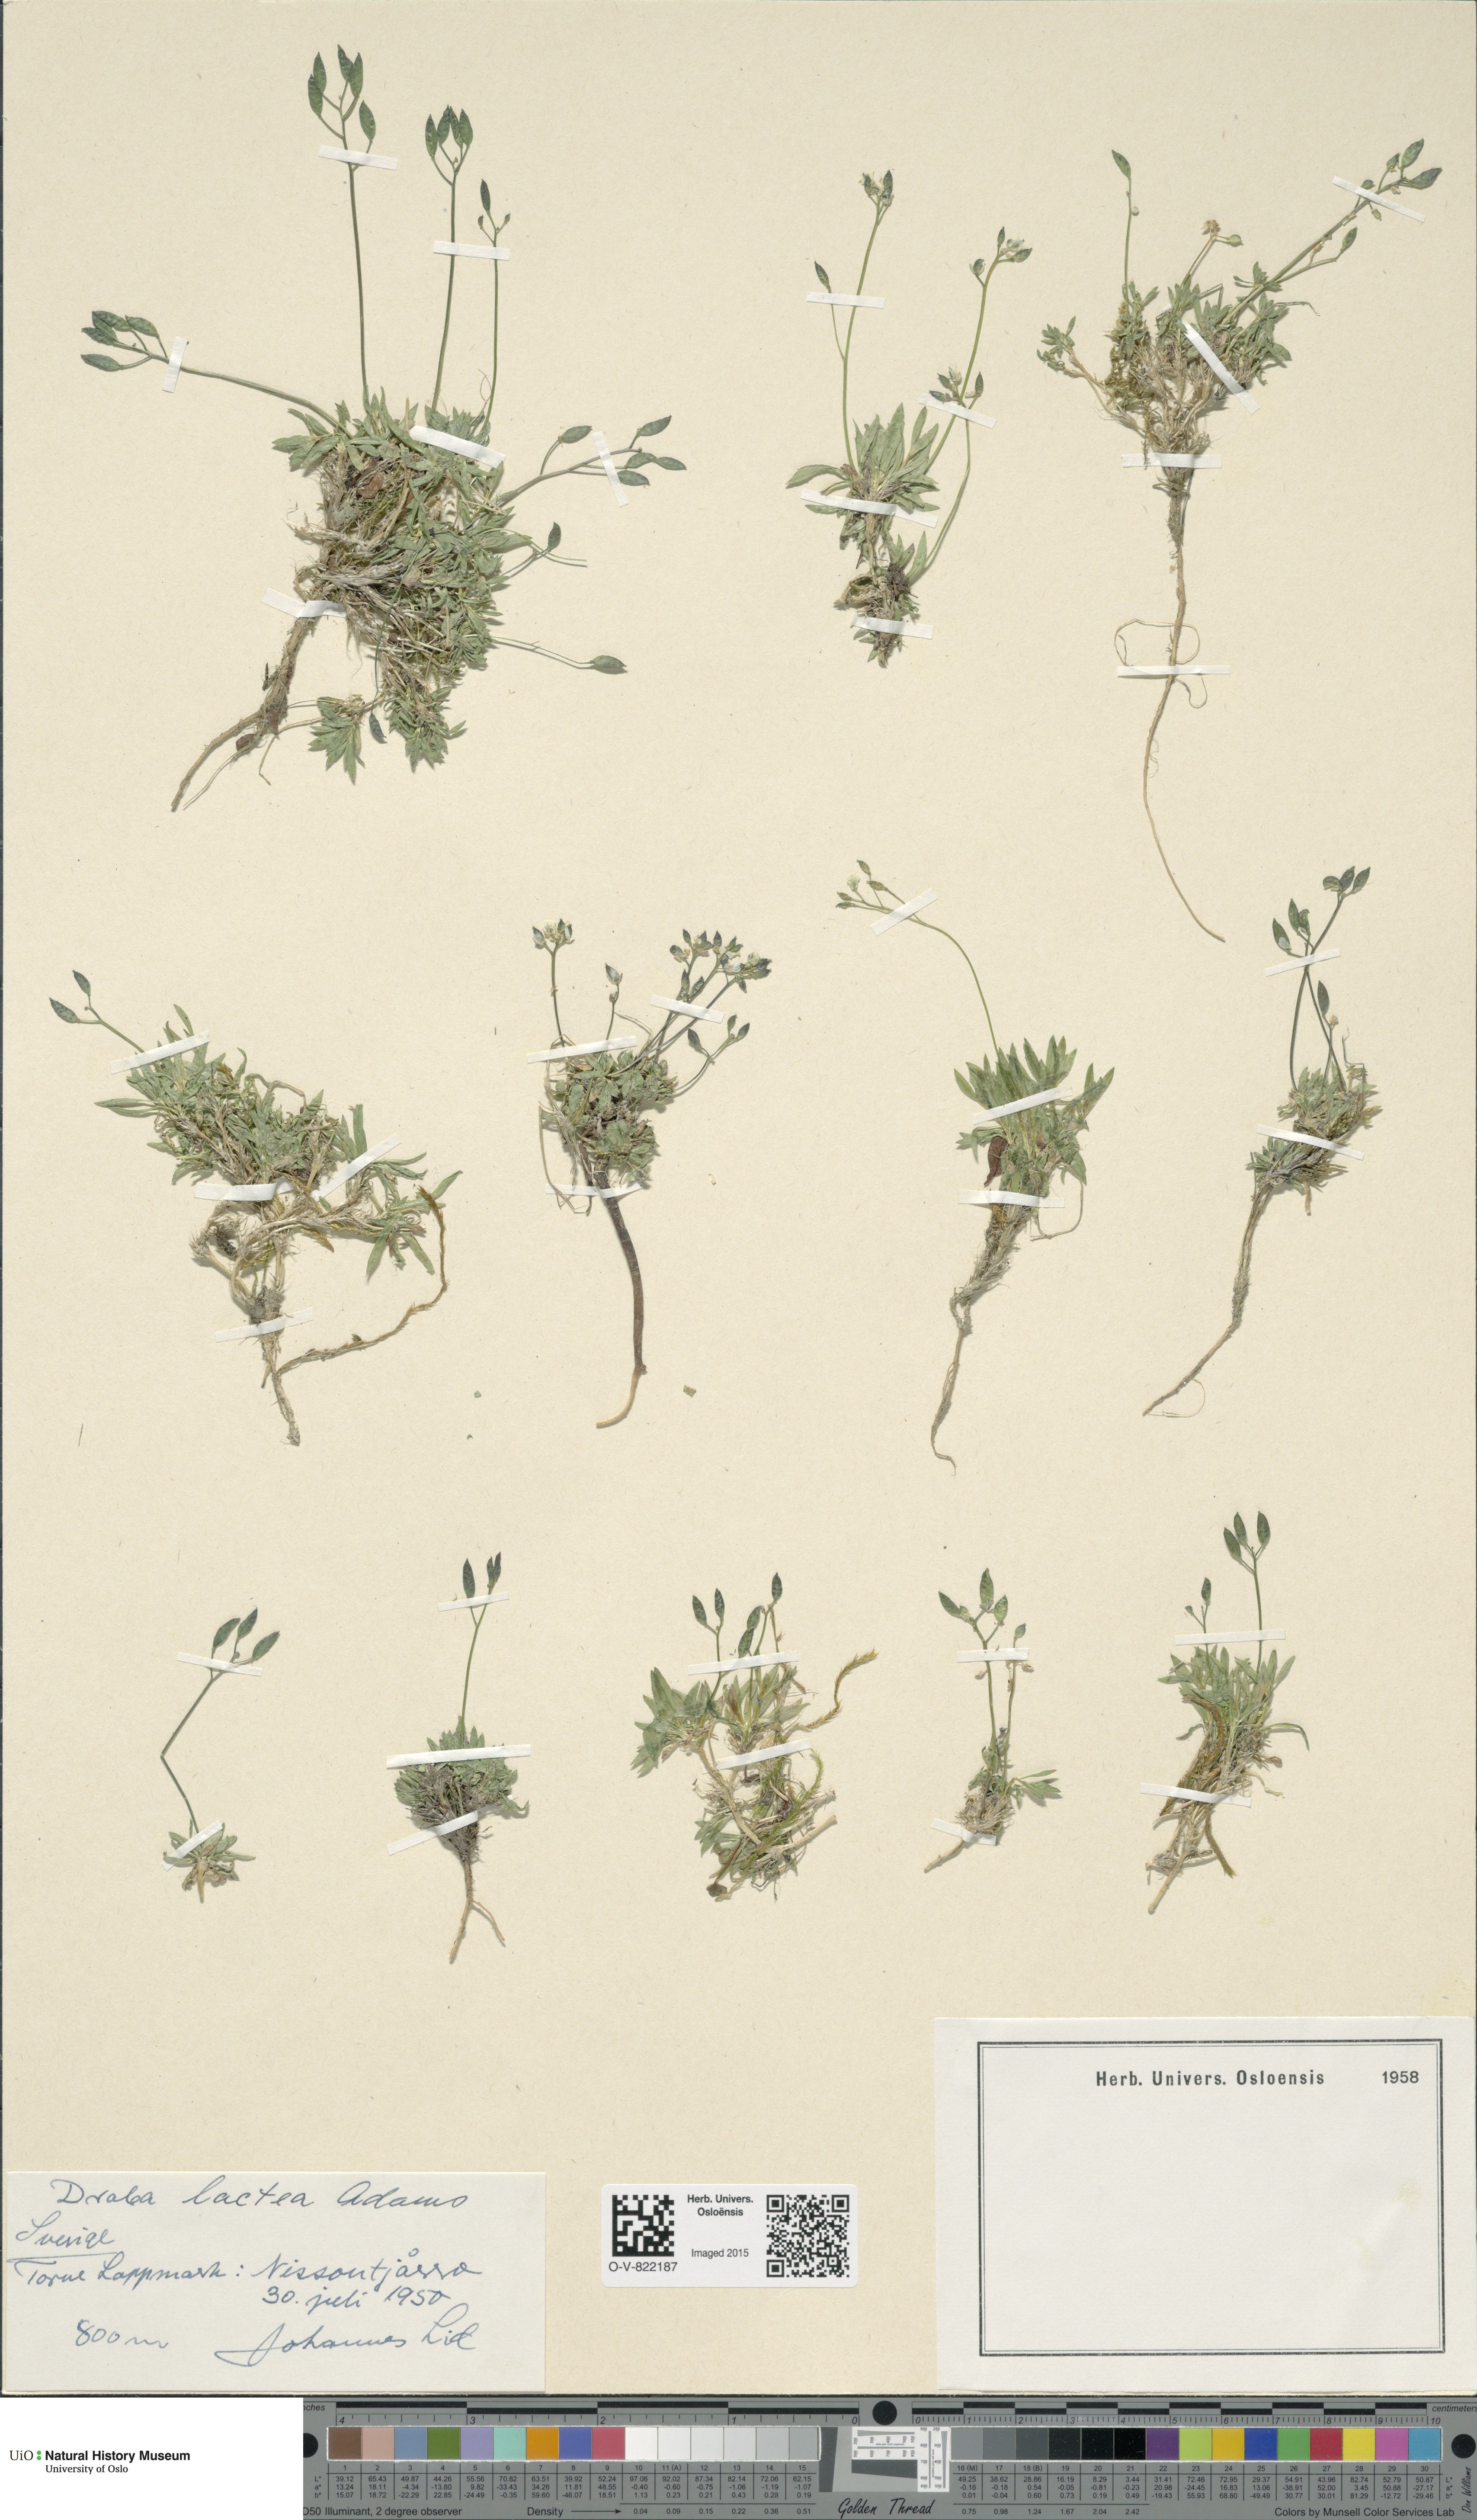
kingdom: Plantae
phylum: Tracheophyta
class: Magnoliopsida
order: Brassicales
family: Brassicaceae
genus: Draba
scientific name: Draba lactea
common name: Milky draba
